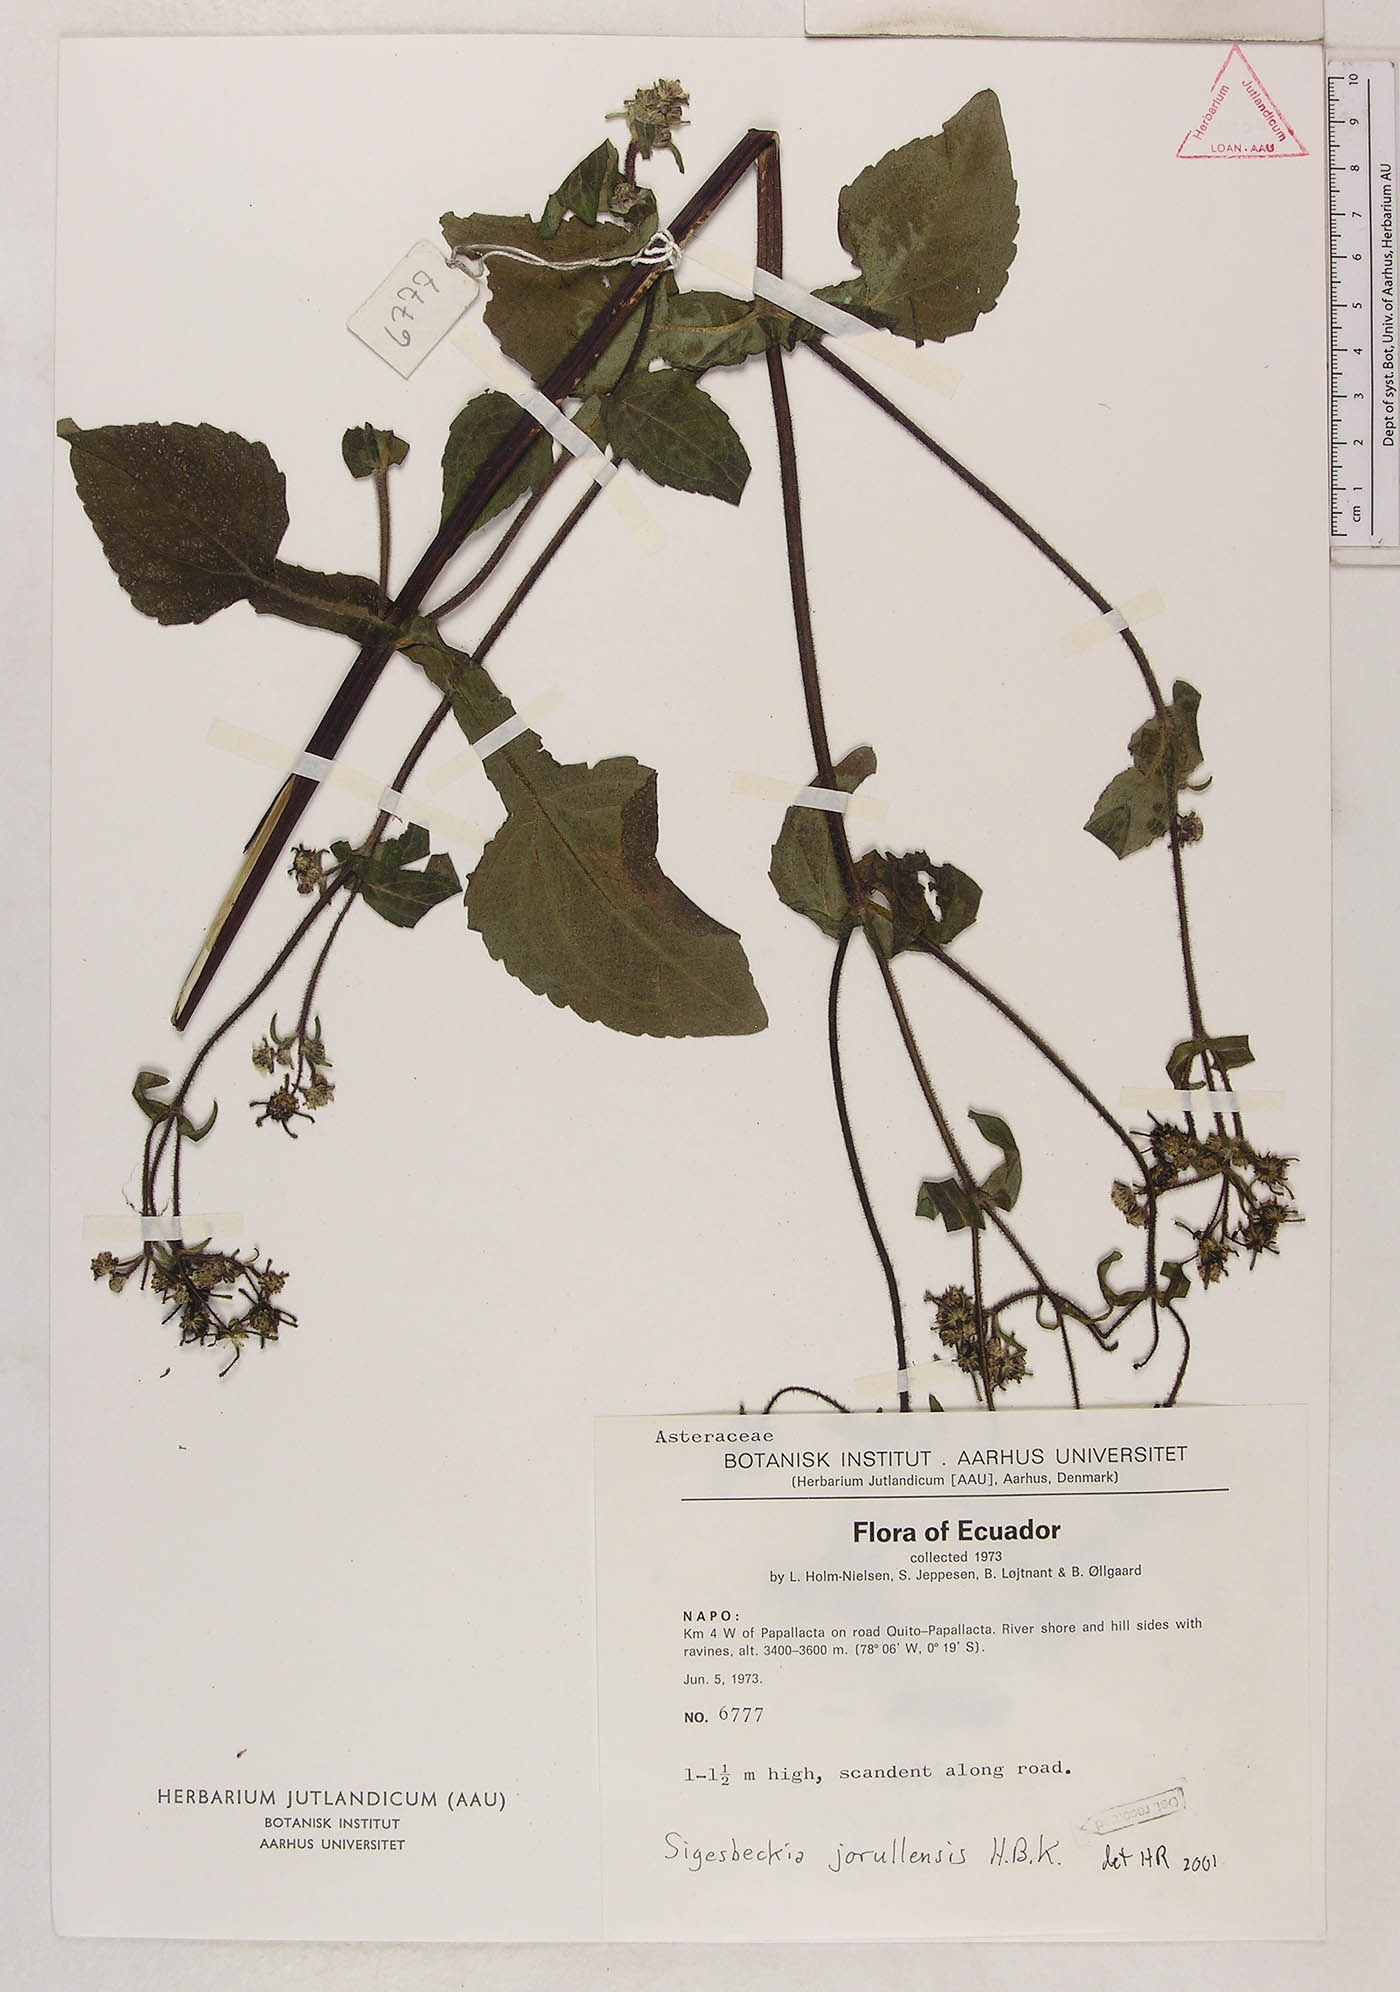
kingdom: Plantae
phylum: Tracheophyta
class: Magnoliopsida
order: Asterales
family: Asteraceae
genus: Sigesbeckia
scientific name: Sigesbeckia jorullensis
